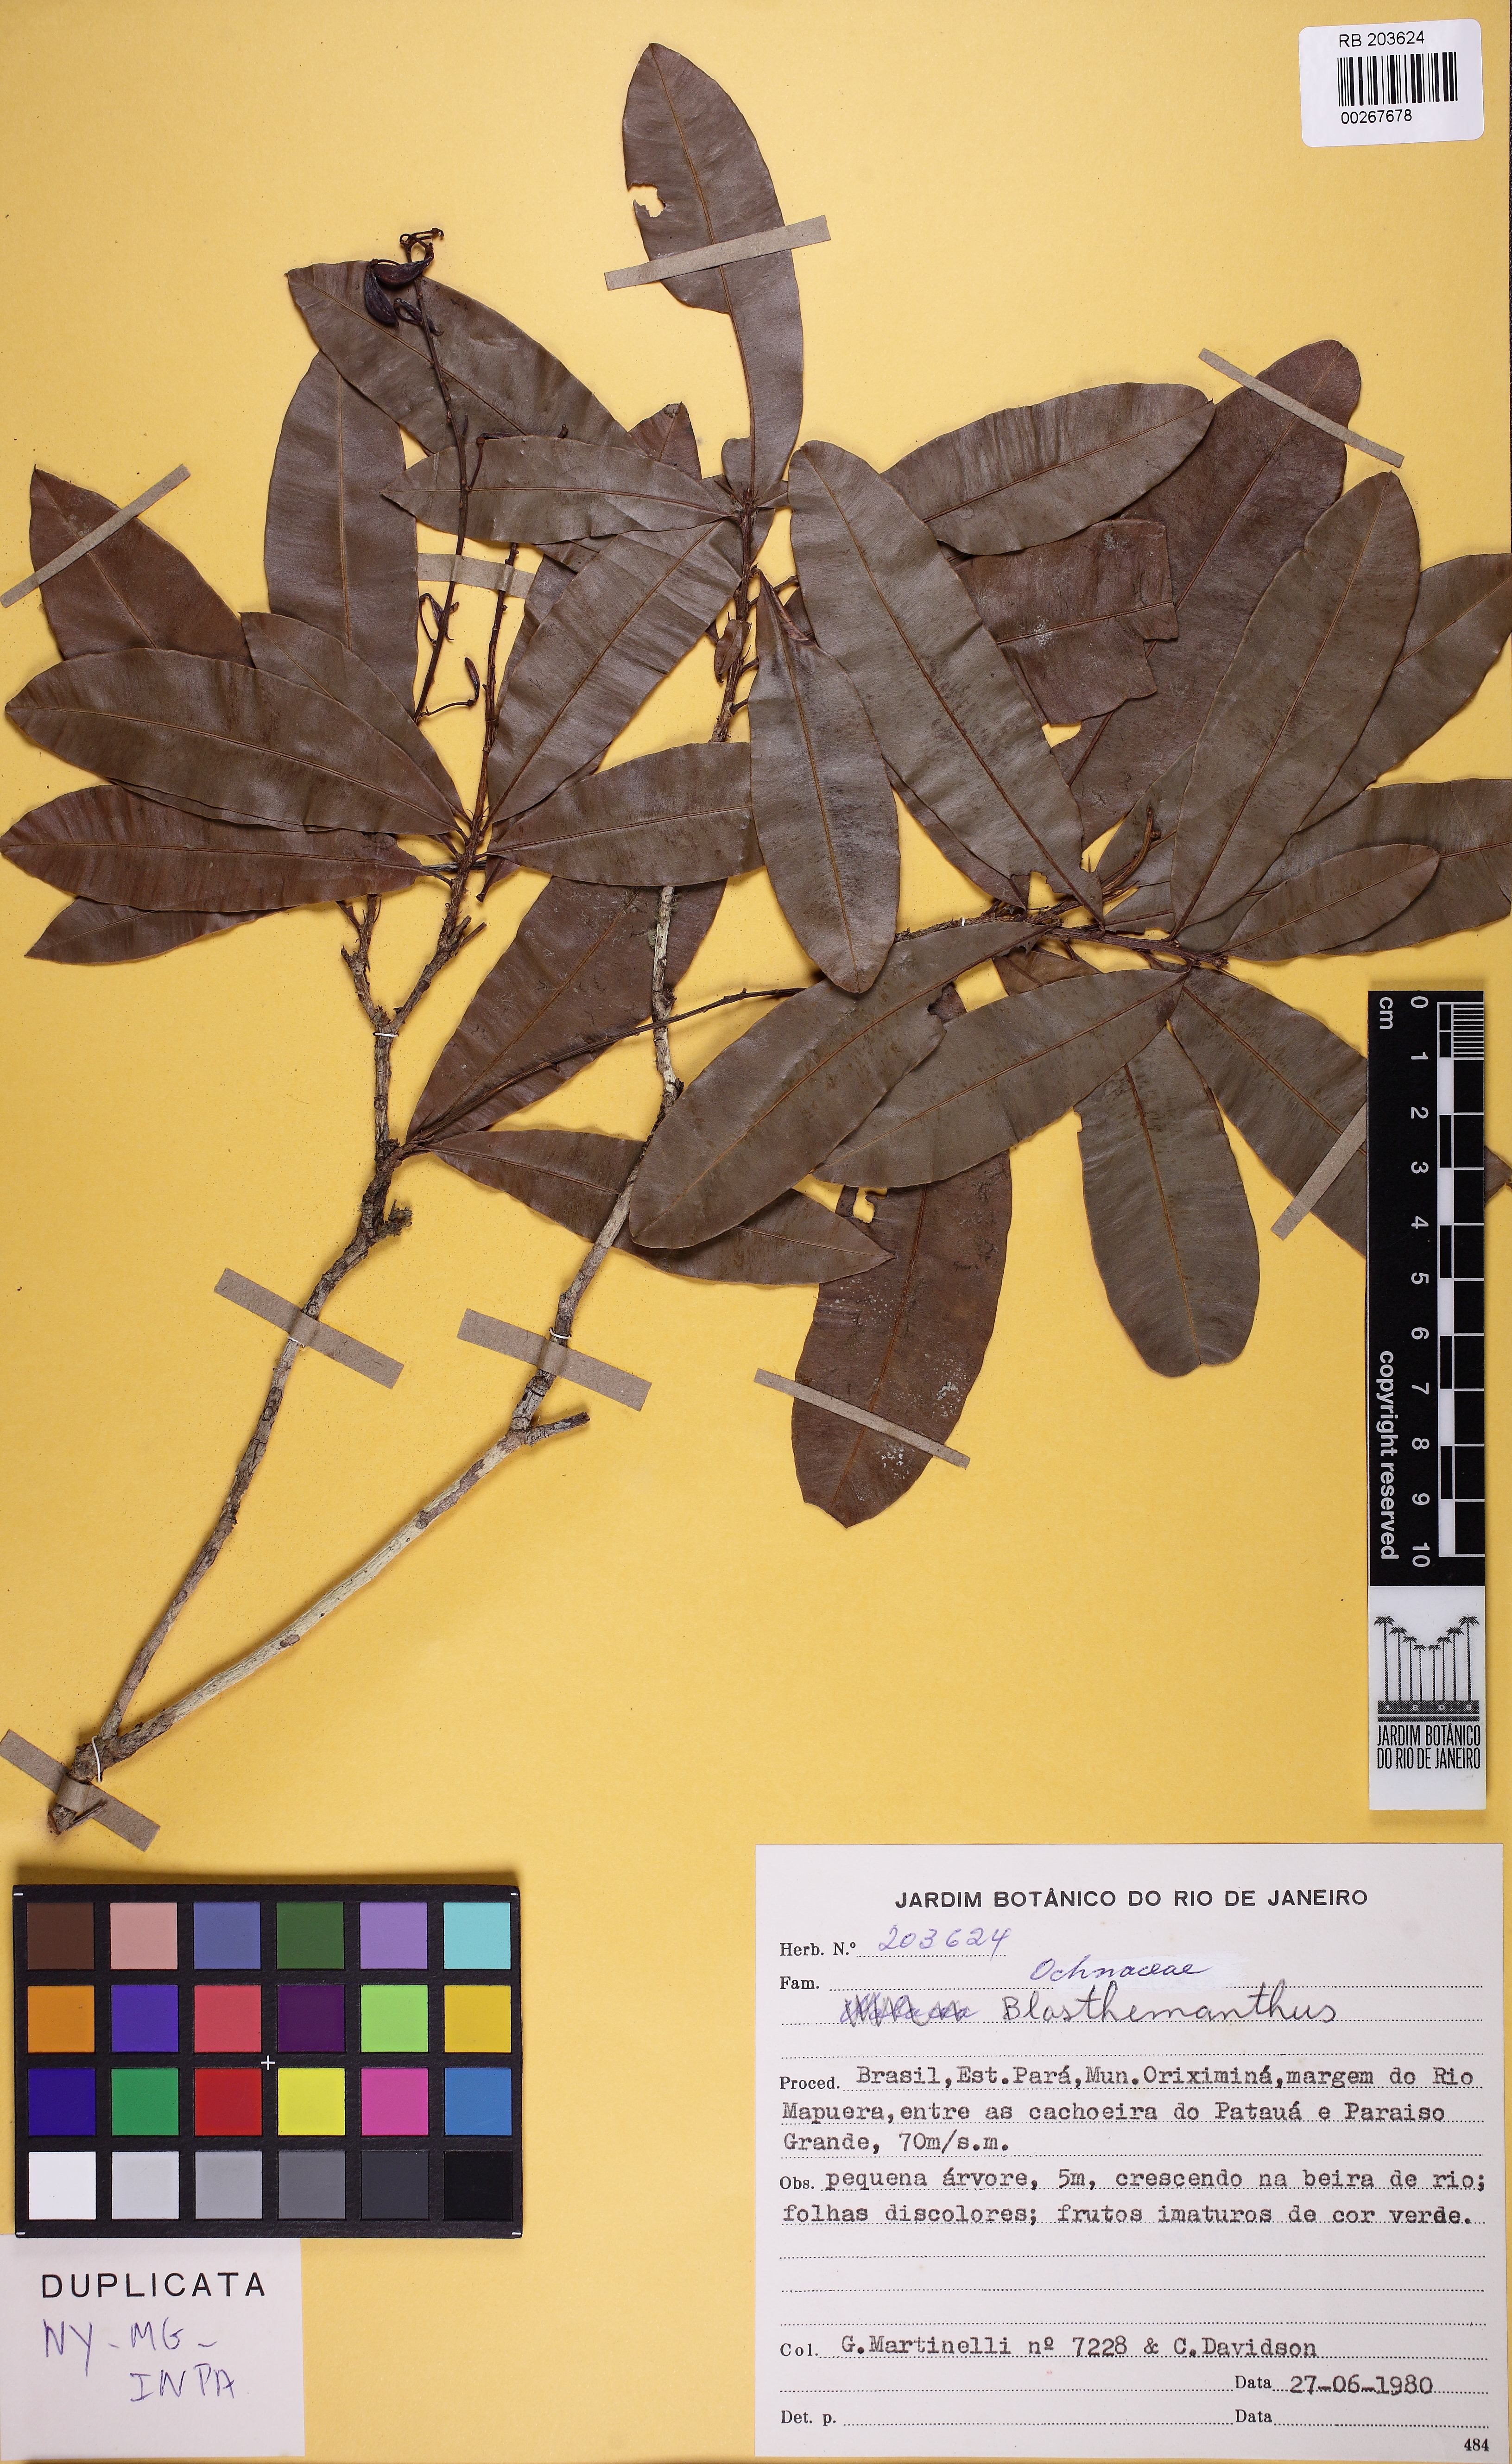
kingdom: Plantae
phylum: Tracheophyta
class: Magnoliopsida
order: Malpighiales
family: Ochnaceae
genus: Blastemanthus
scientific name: Blastemanthus
